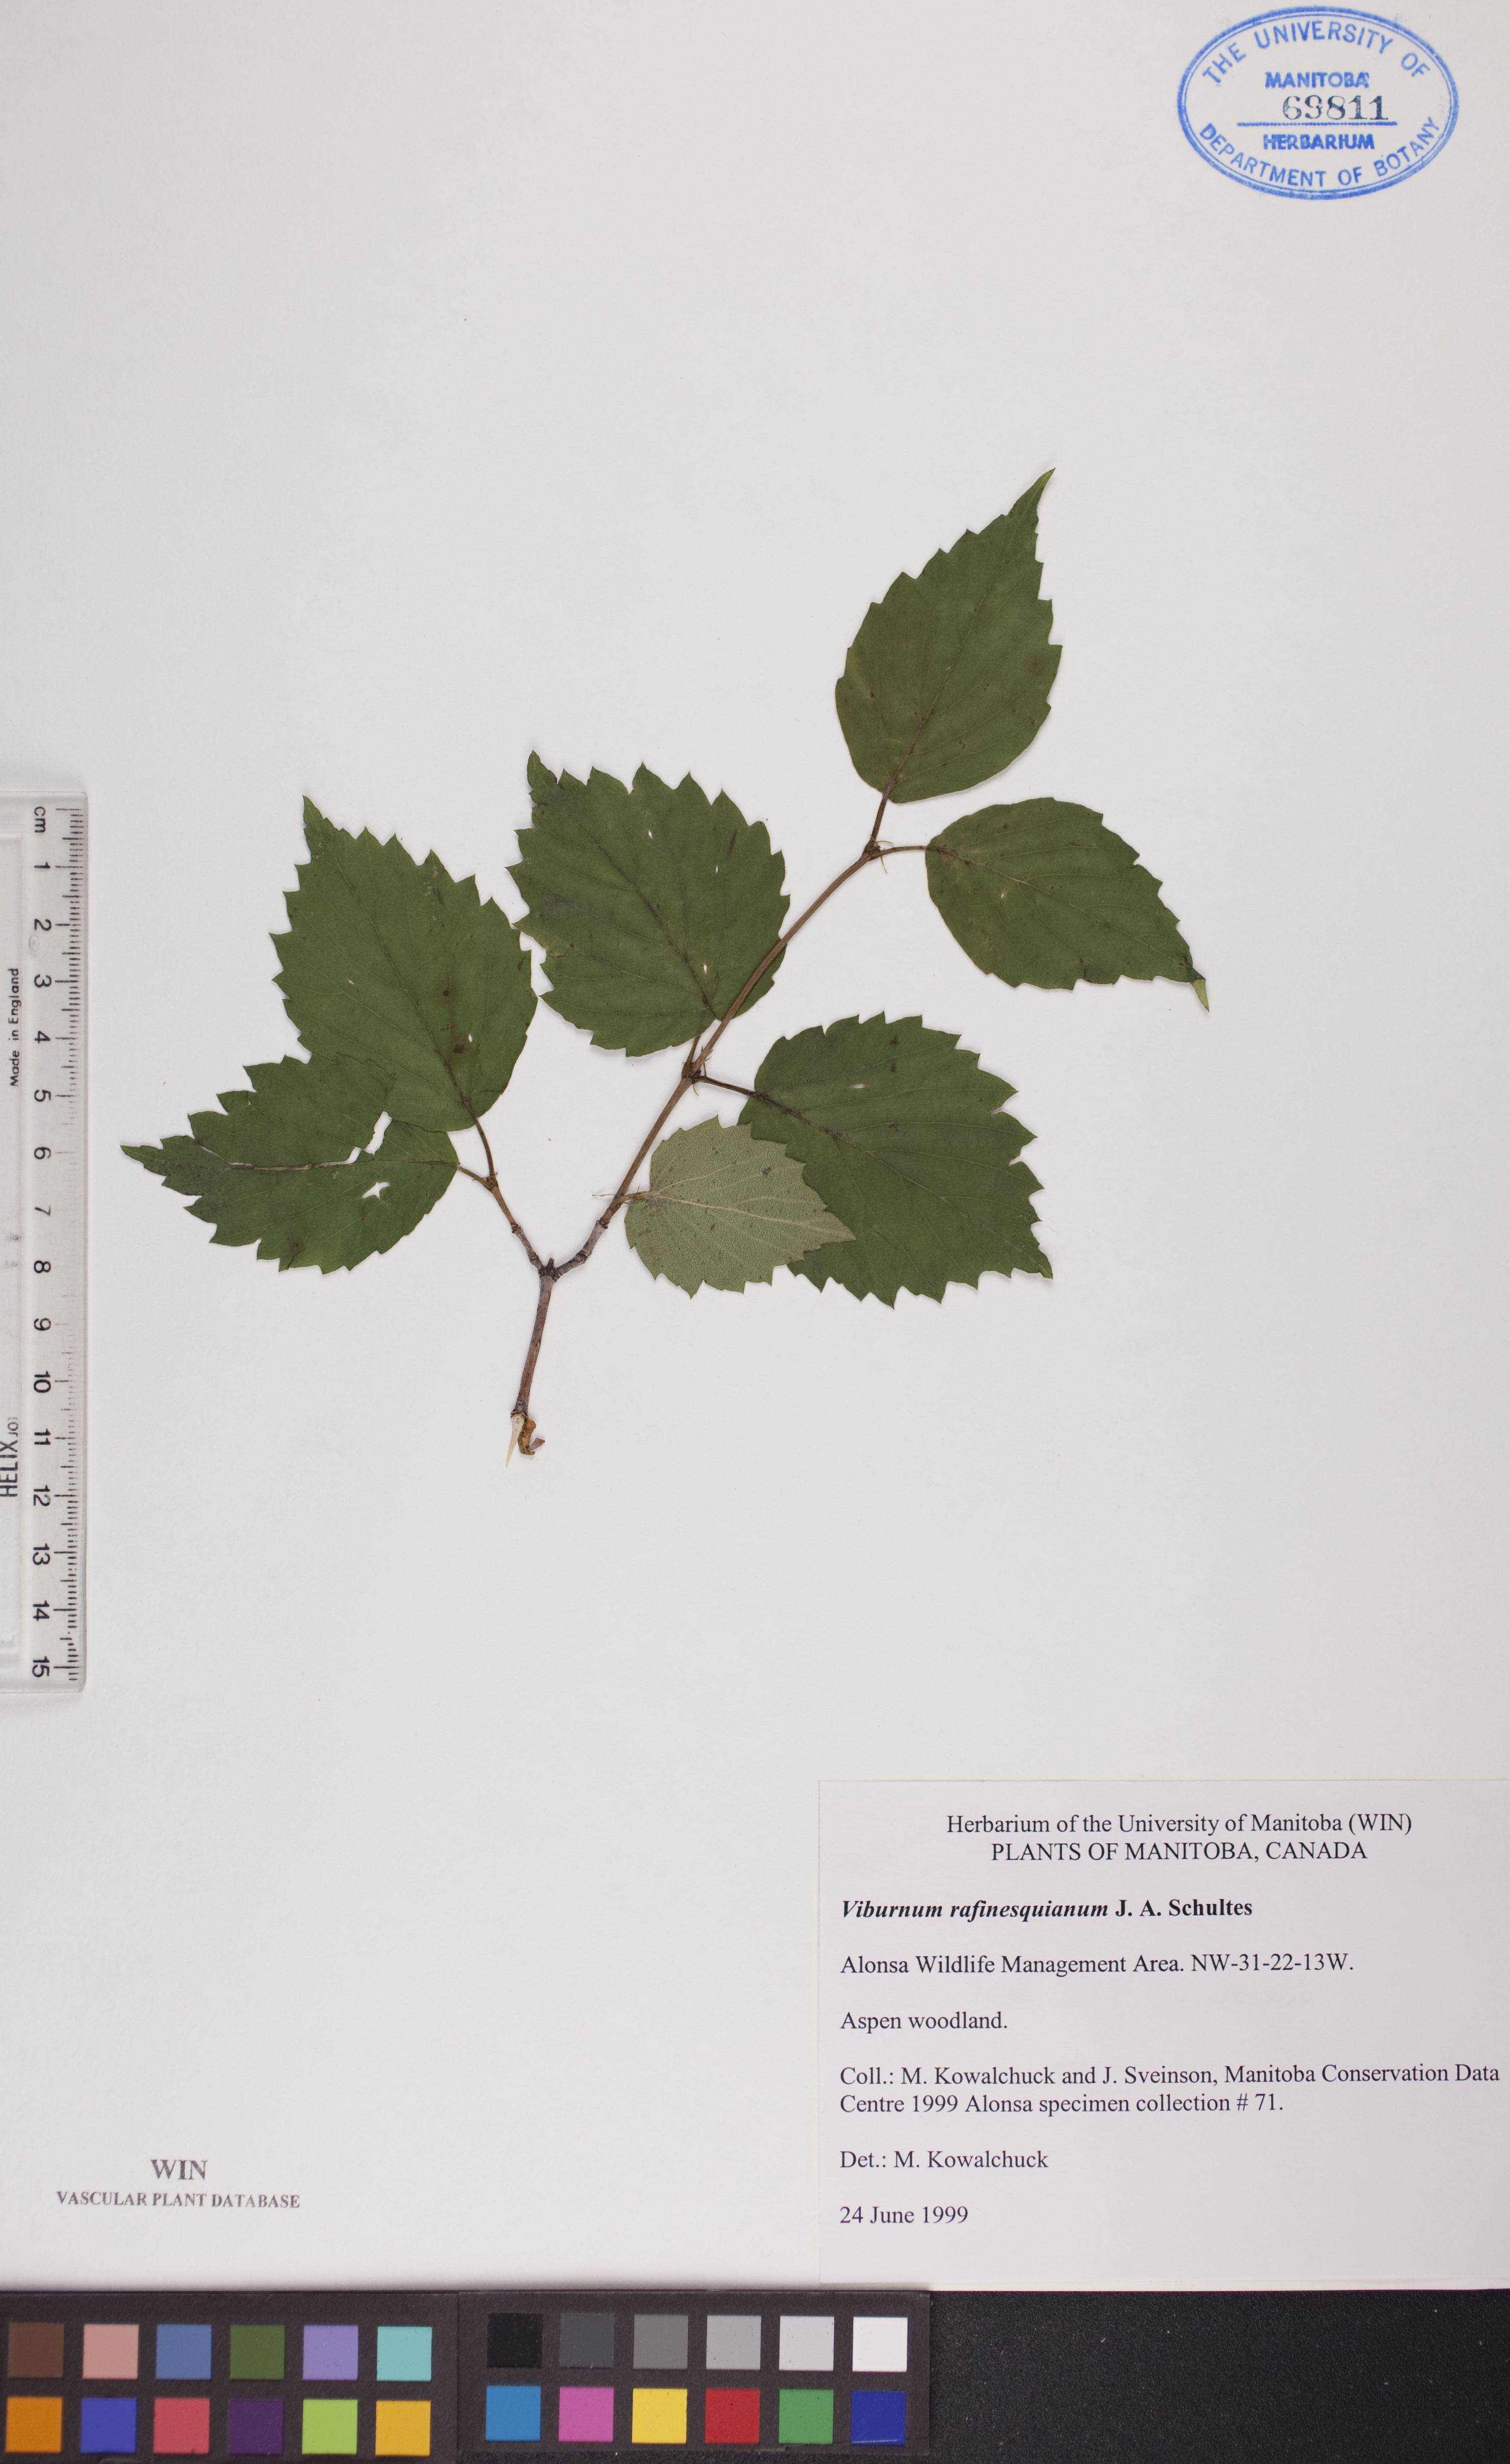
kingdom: Plantae
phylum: Tracheophyta
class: Magnoliopsida
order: Dipsacales
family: Viburnaceae
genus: Viburnum
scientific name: Viburnum rafinesquianum
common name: Downy arrow-wood
